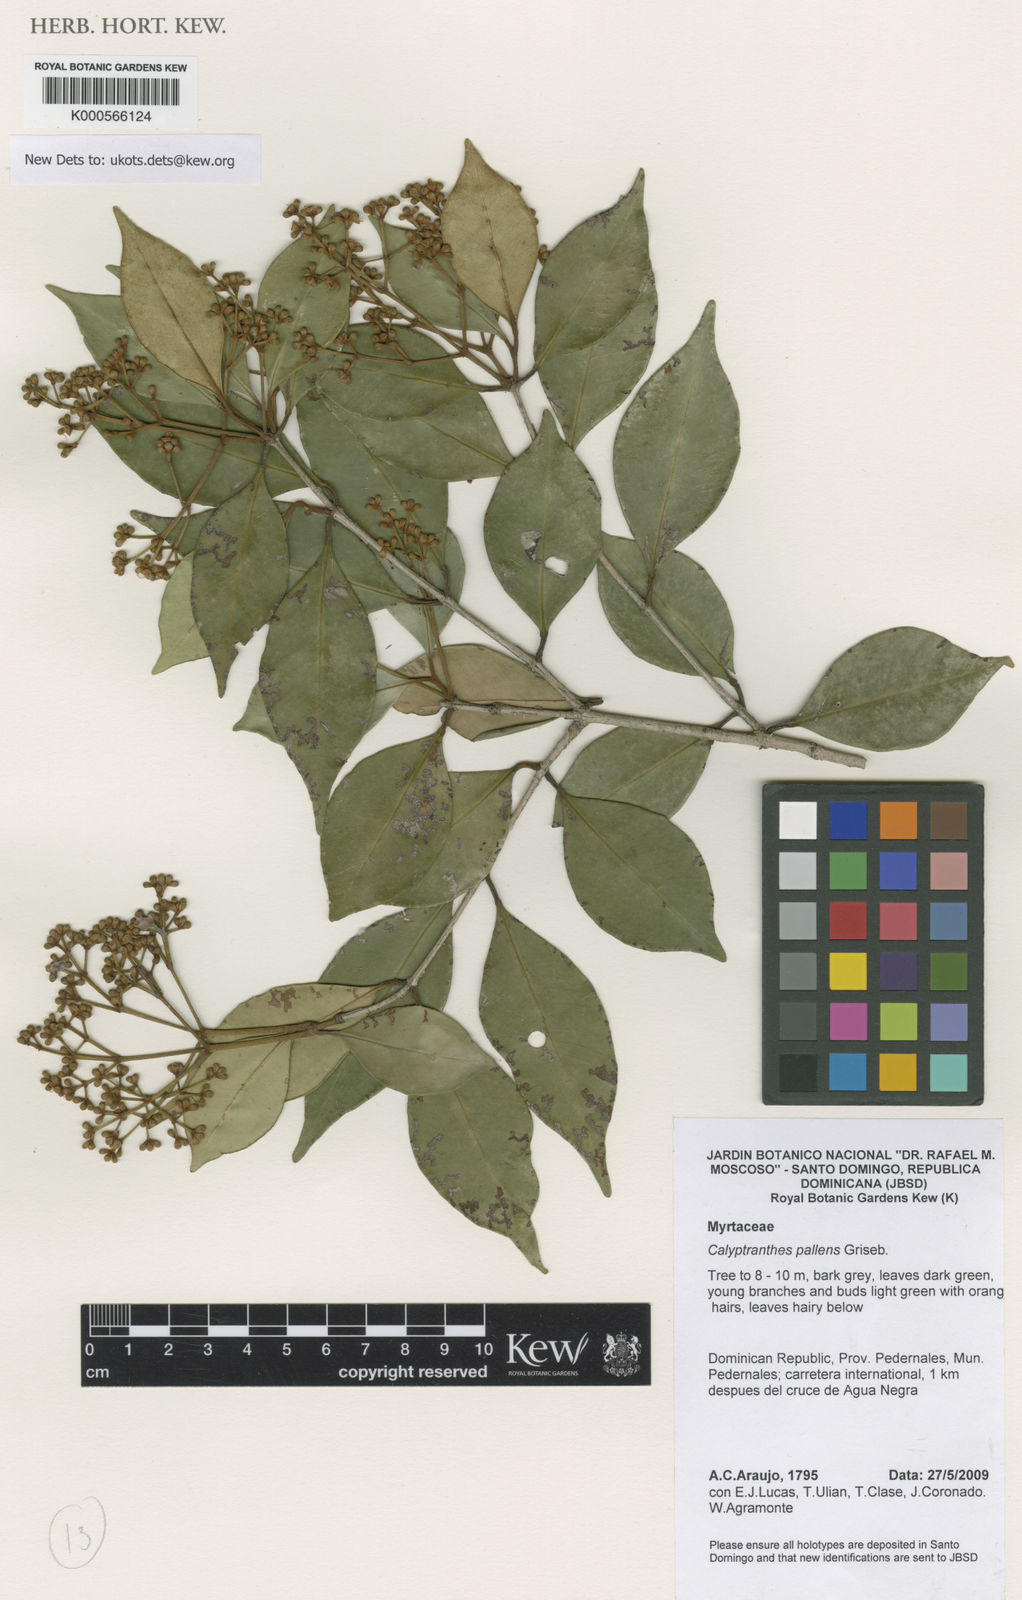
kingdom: Plantae
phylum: Tracheophyta
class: Magnoliopsida
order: Myrtales
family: Myrtaceae
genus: Myrcia
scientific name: Myrcia neopallens
